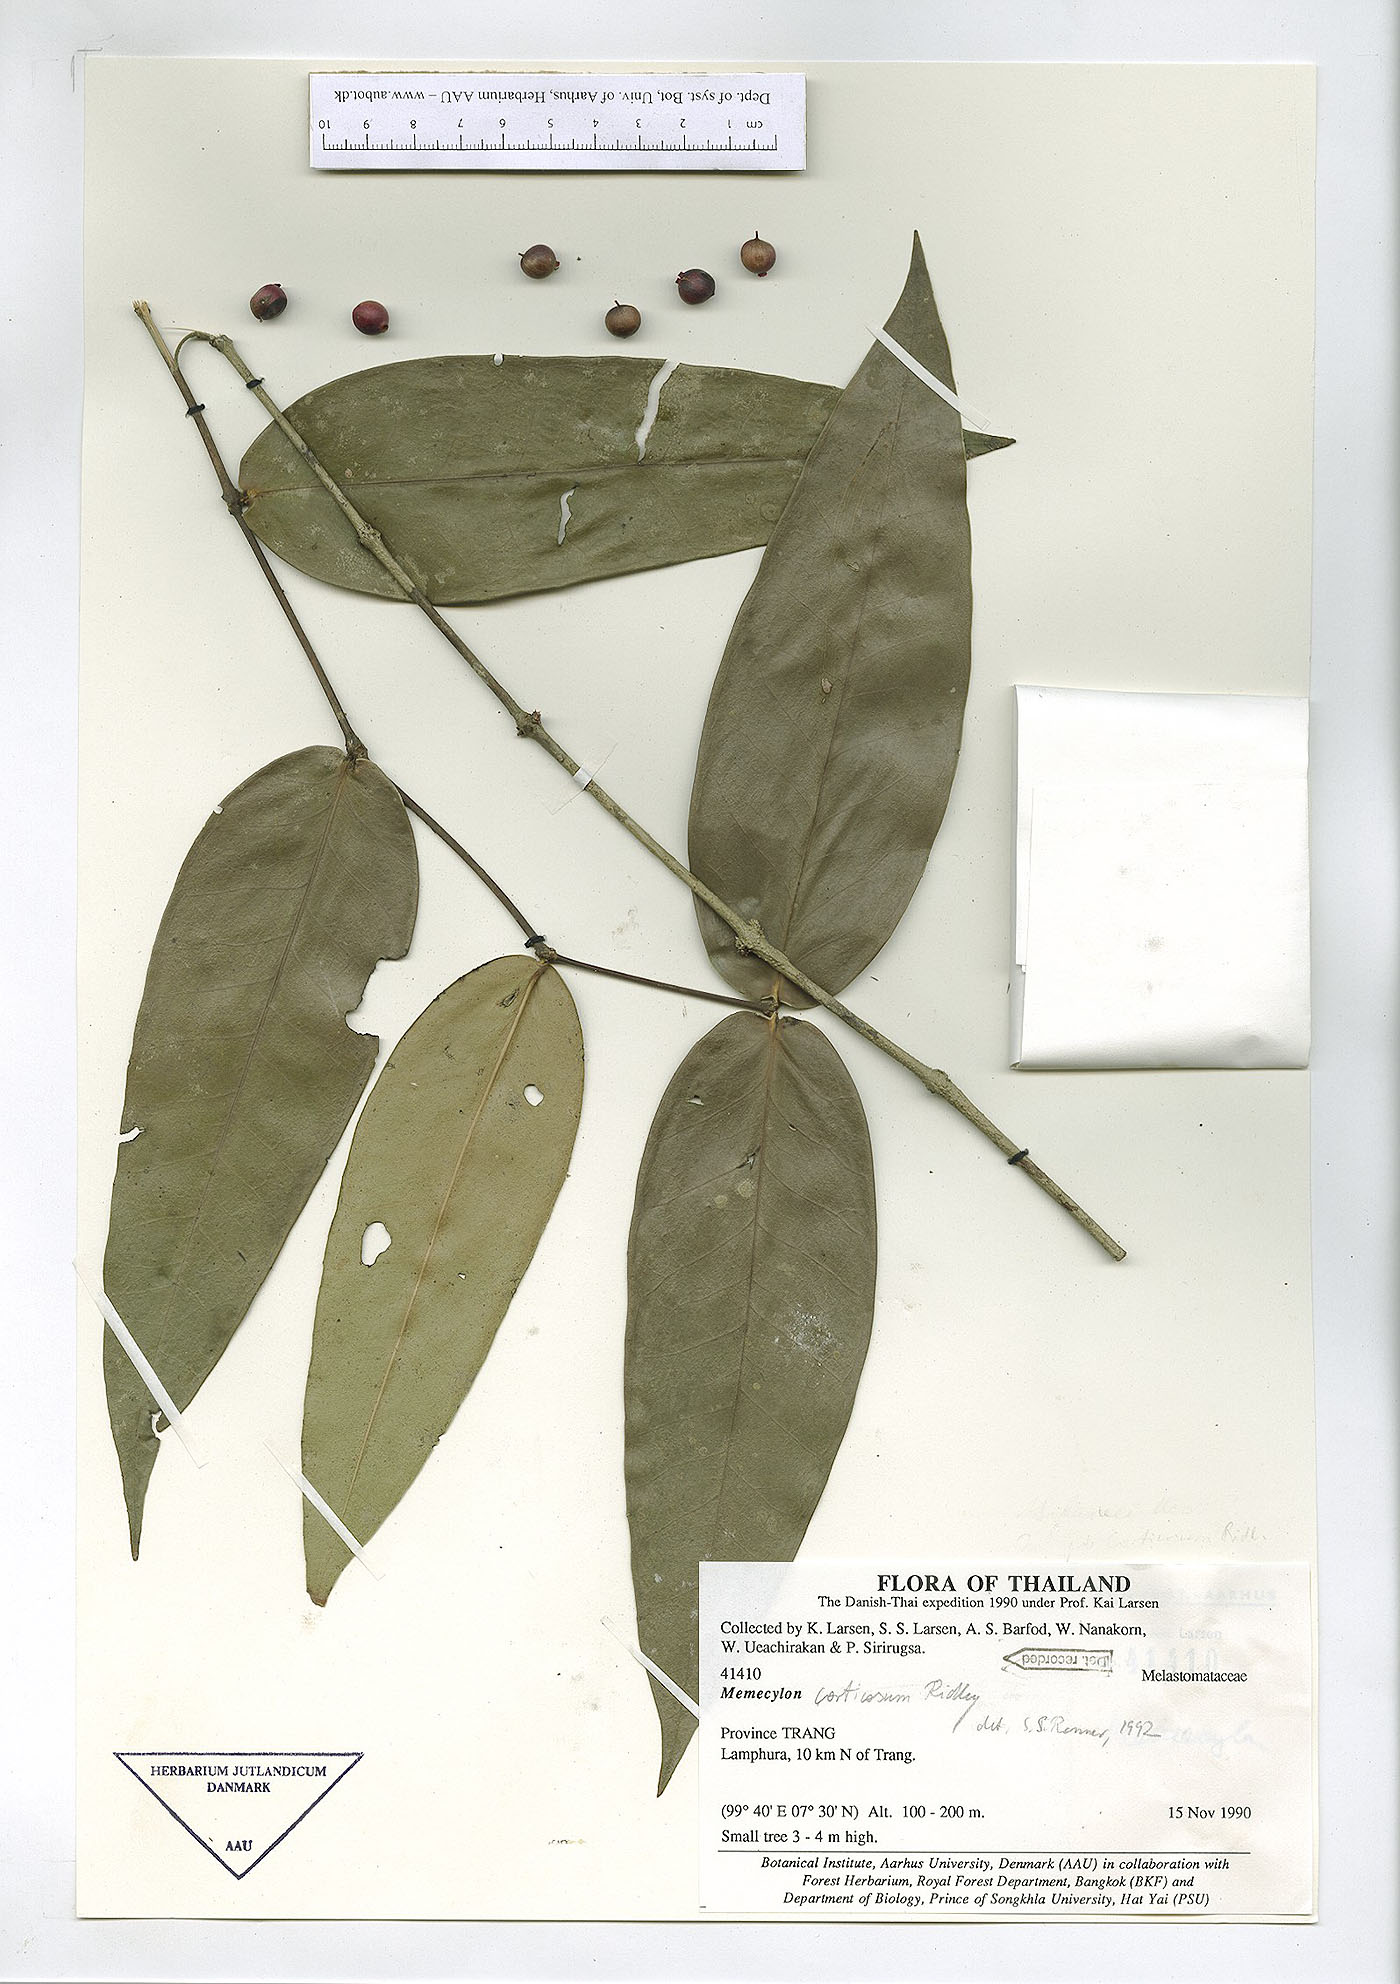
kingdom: Plantae
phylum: Tracheophyta
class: Magnoliopsida
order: Myrtales
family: Melastomataceae
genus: Memecylon
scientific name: Memecylon corticosum
